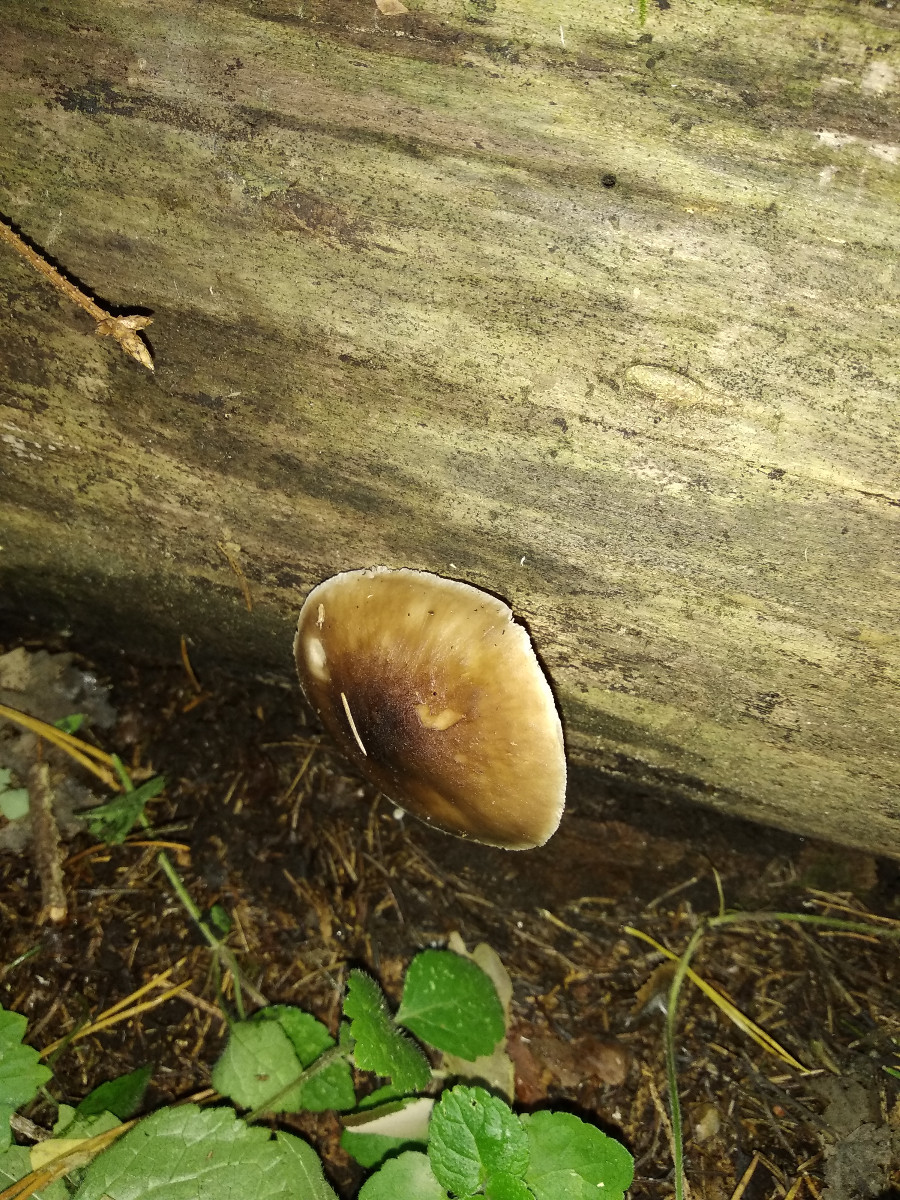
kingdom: Fungi
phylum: Basidiomycota
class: Agaricomycetes
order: Agaricales
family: Pluteaceae
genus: Pluteus
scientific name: Pluteus
